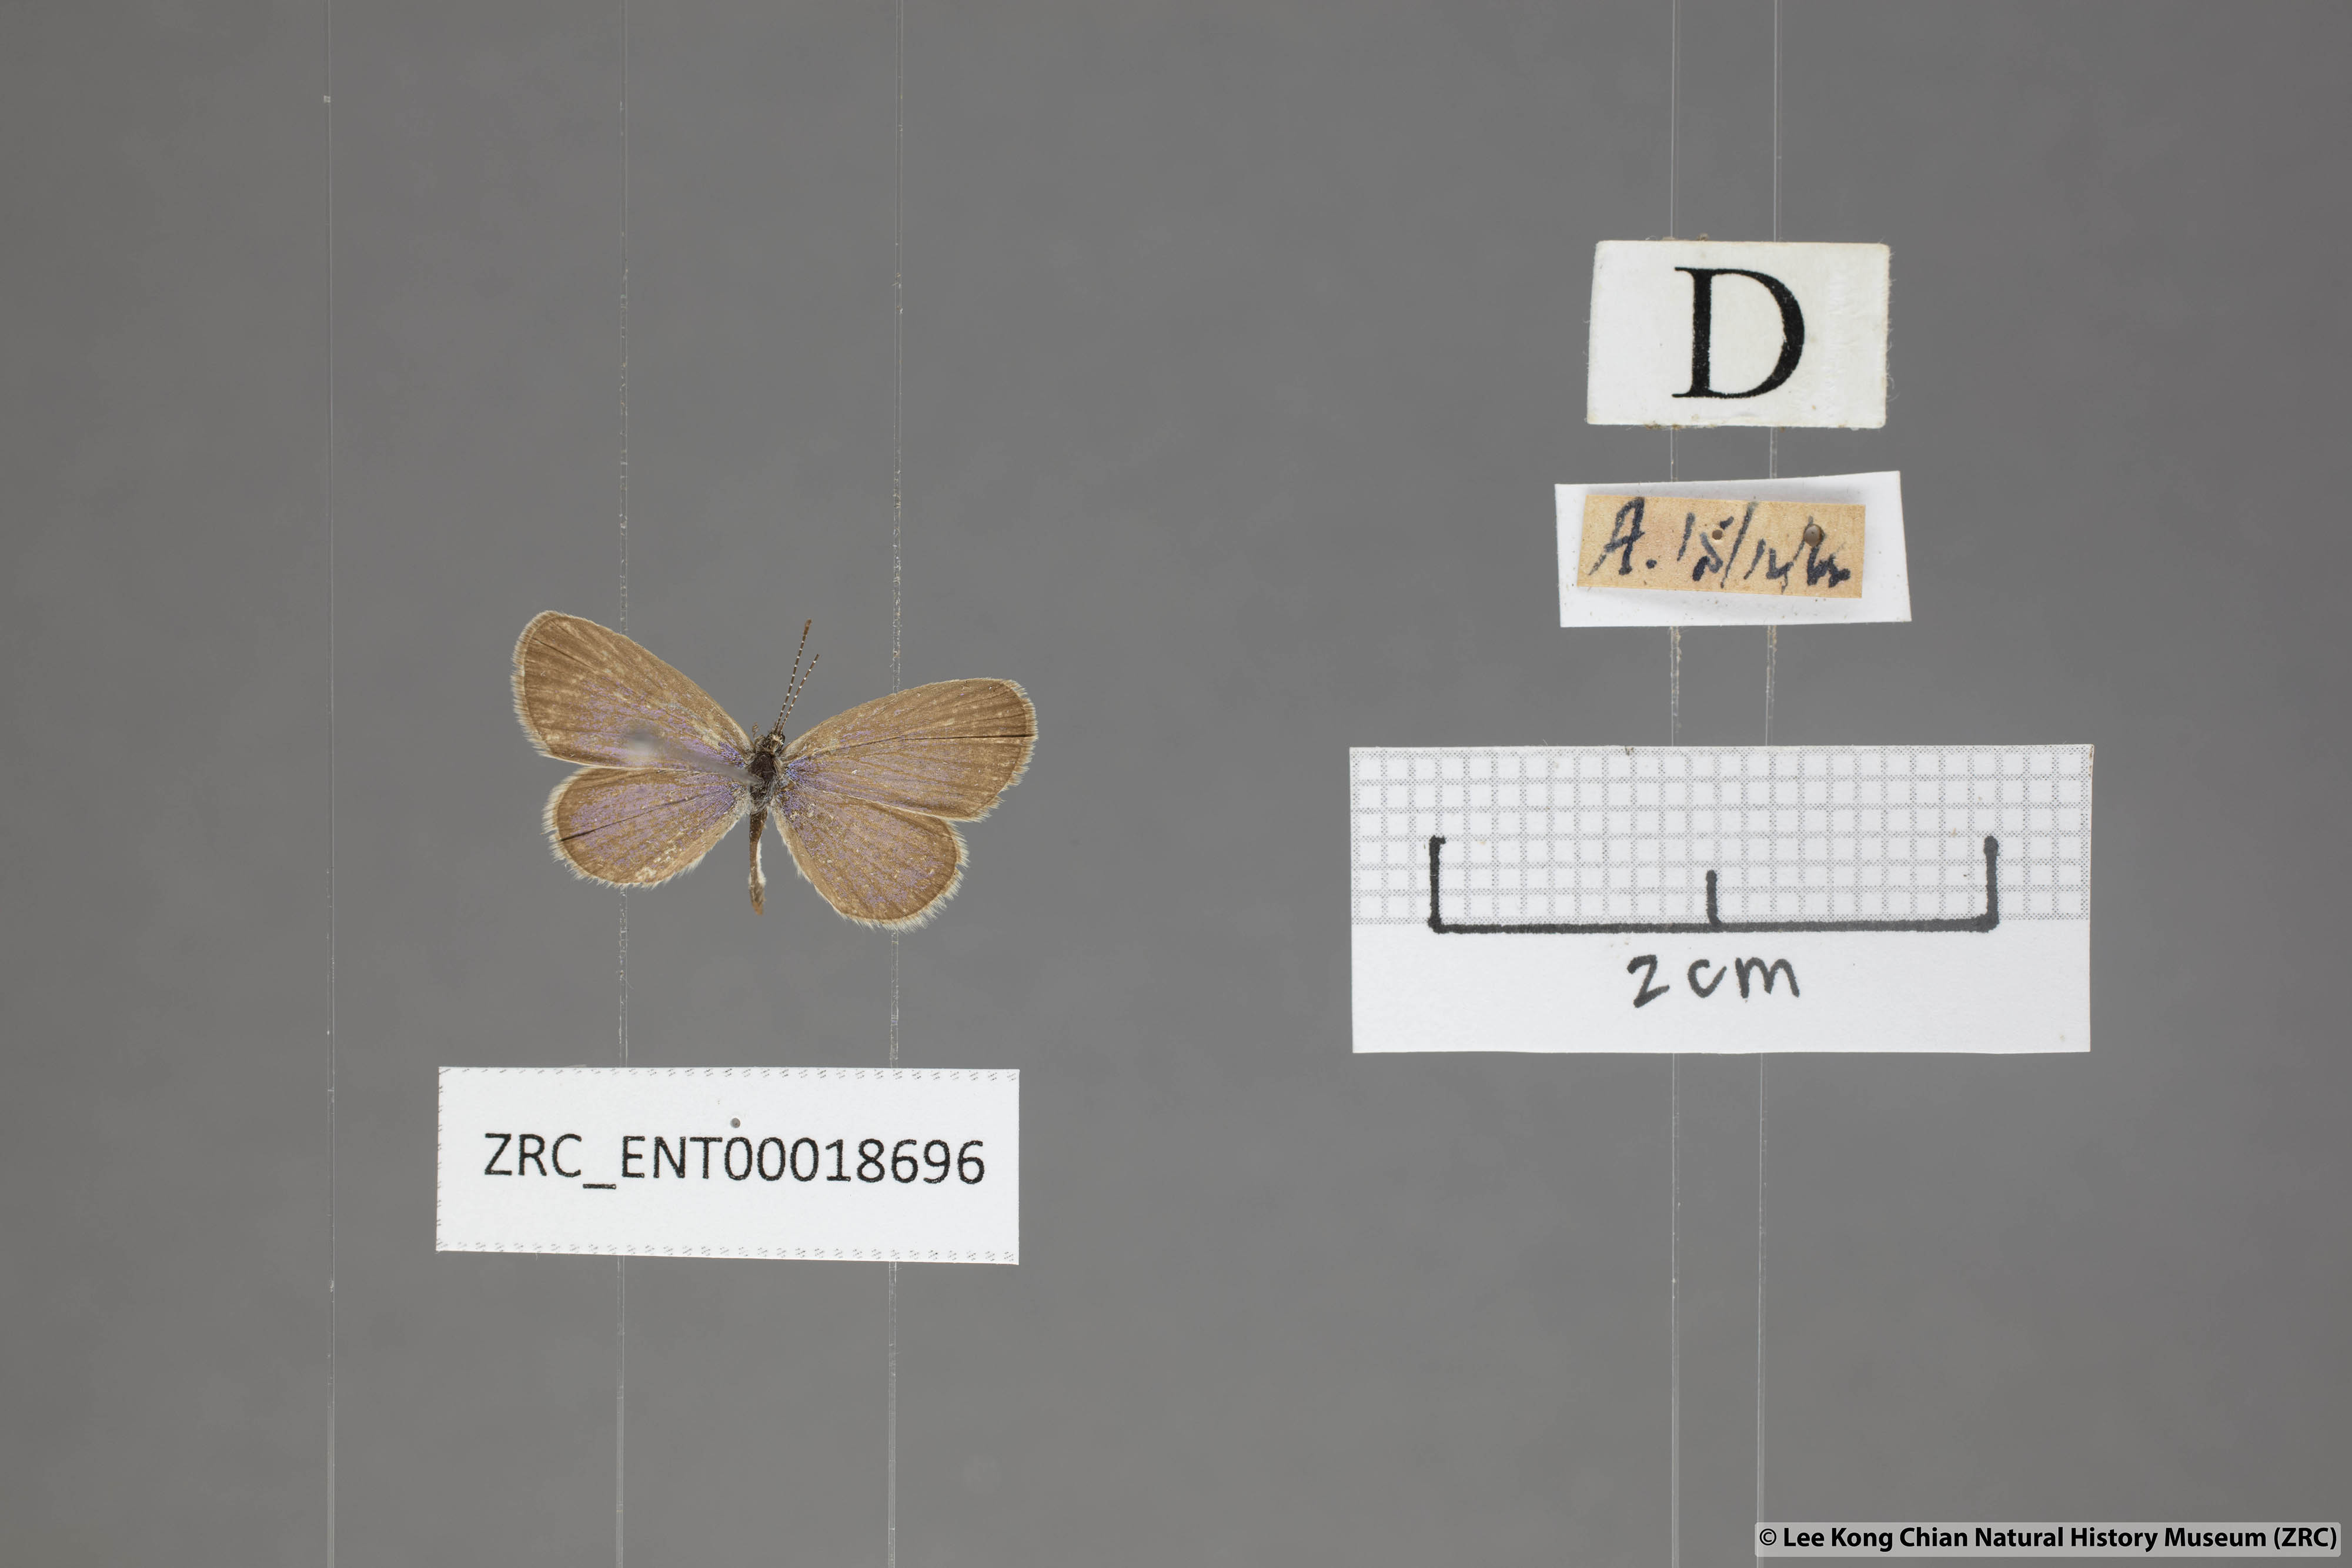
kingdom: Animalia
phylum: Arthropoda
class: Insecta
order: Lepidoptera
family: Lycaenidae
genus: Zizula
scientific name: Zizula hylax
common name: Gaika blue
